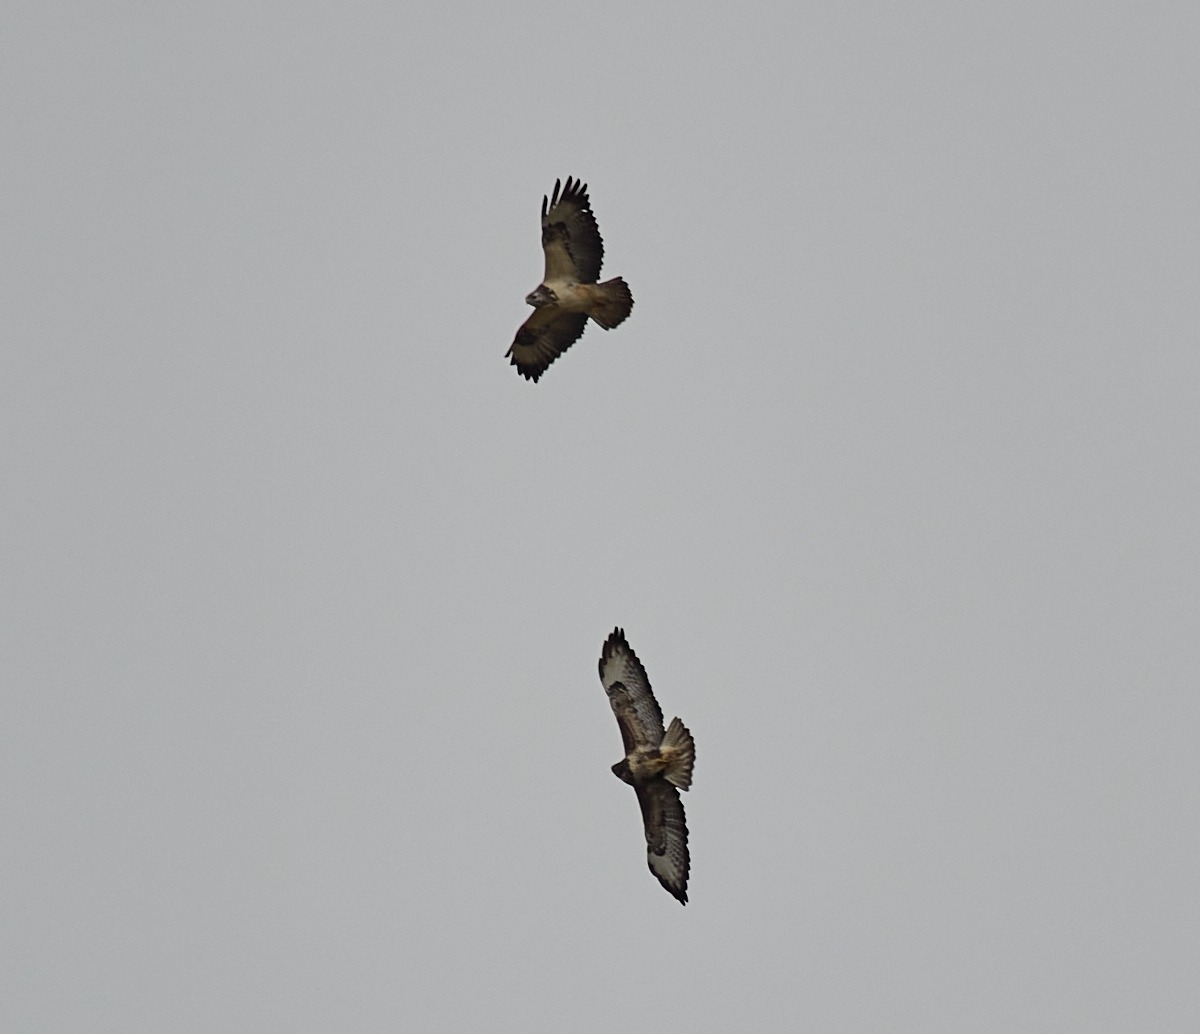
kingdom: Animalia
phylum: Chordata
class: Aves
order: Accipitriformes
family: Accipitridae
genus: Buteo
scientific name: Buteo buteo
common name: Musvåge
